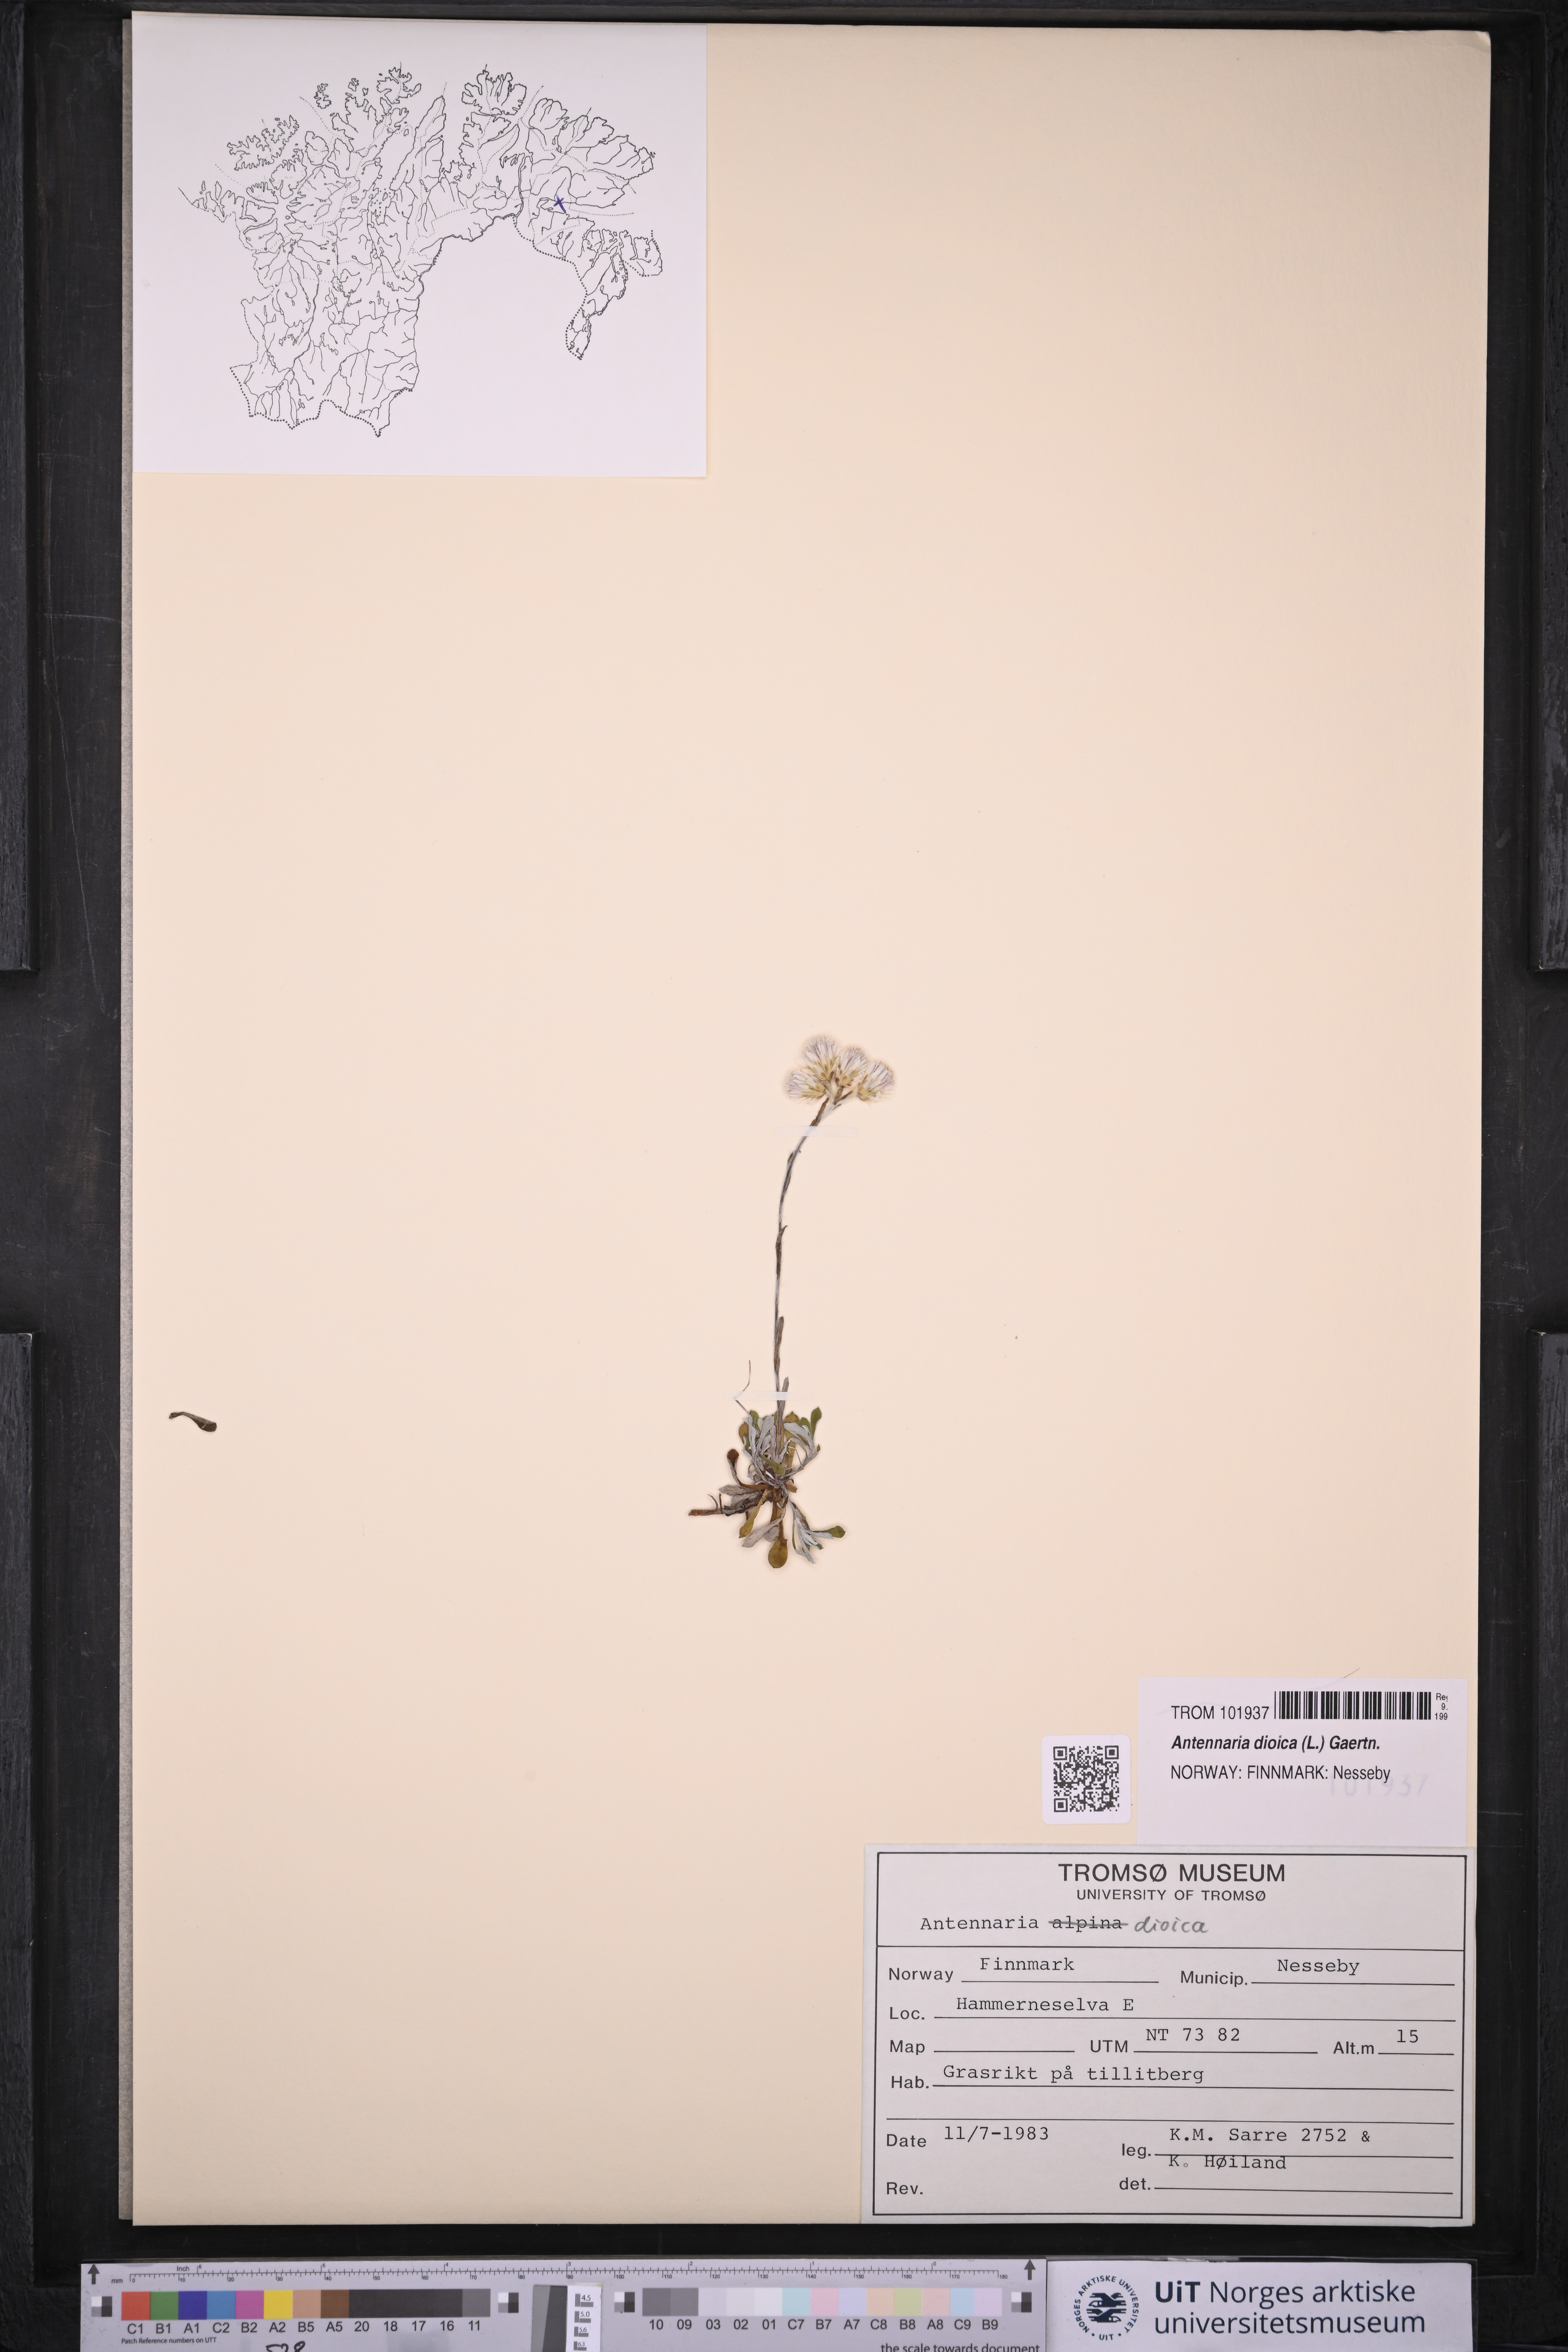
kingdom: Plantae
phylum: Tracheophyta
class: Magnoliopsida
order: Asterales
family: Asteraceae
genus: Antennaria
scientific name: Antennaria dioica
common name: Mountain everlasting
